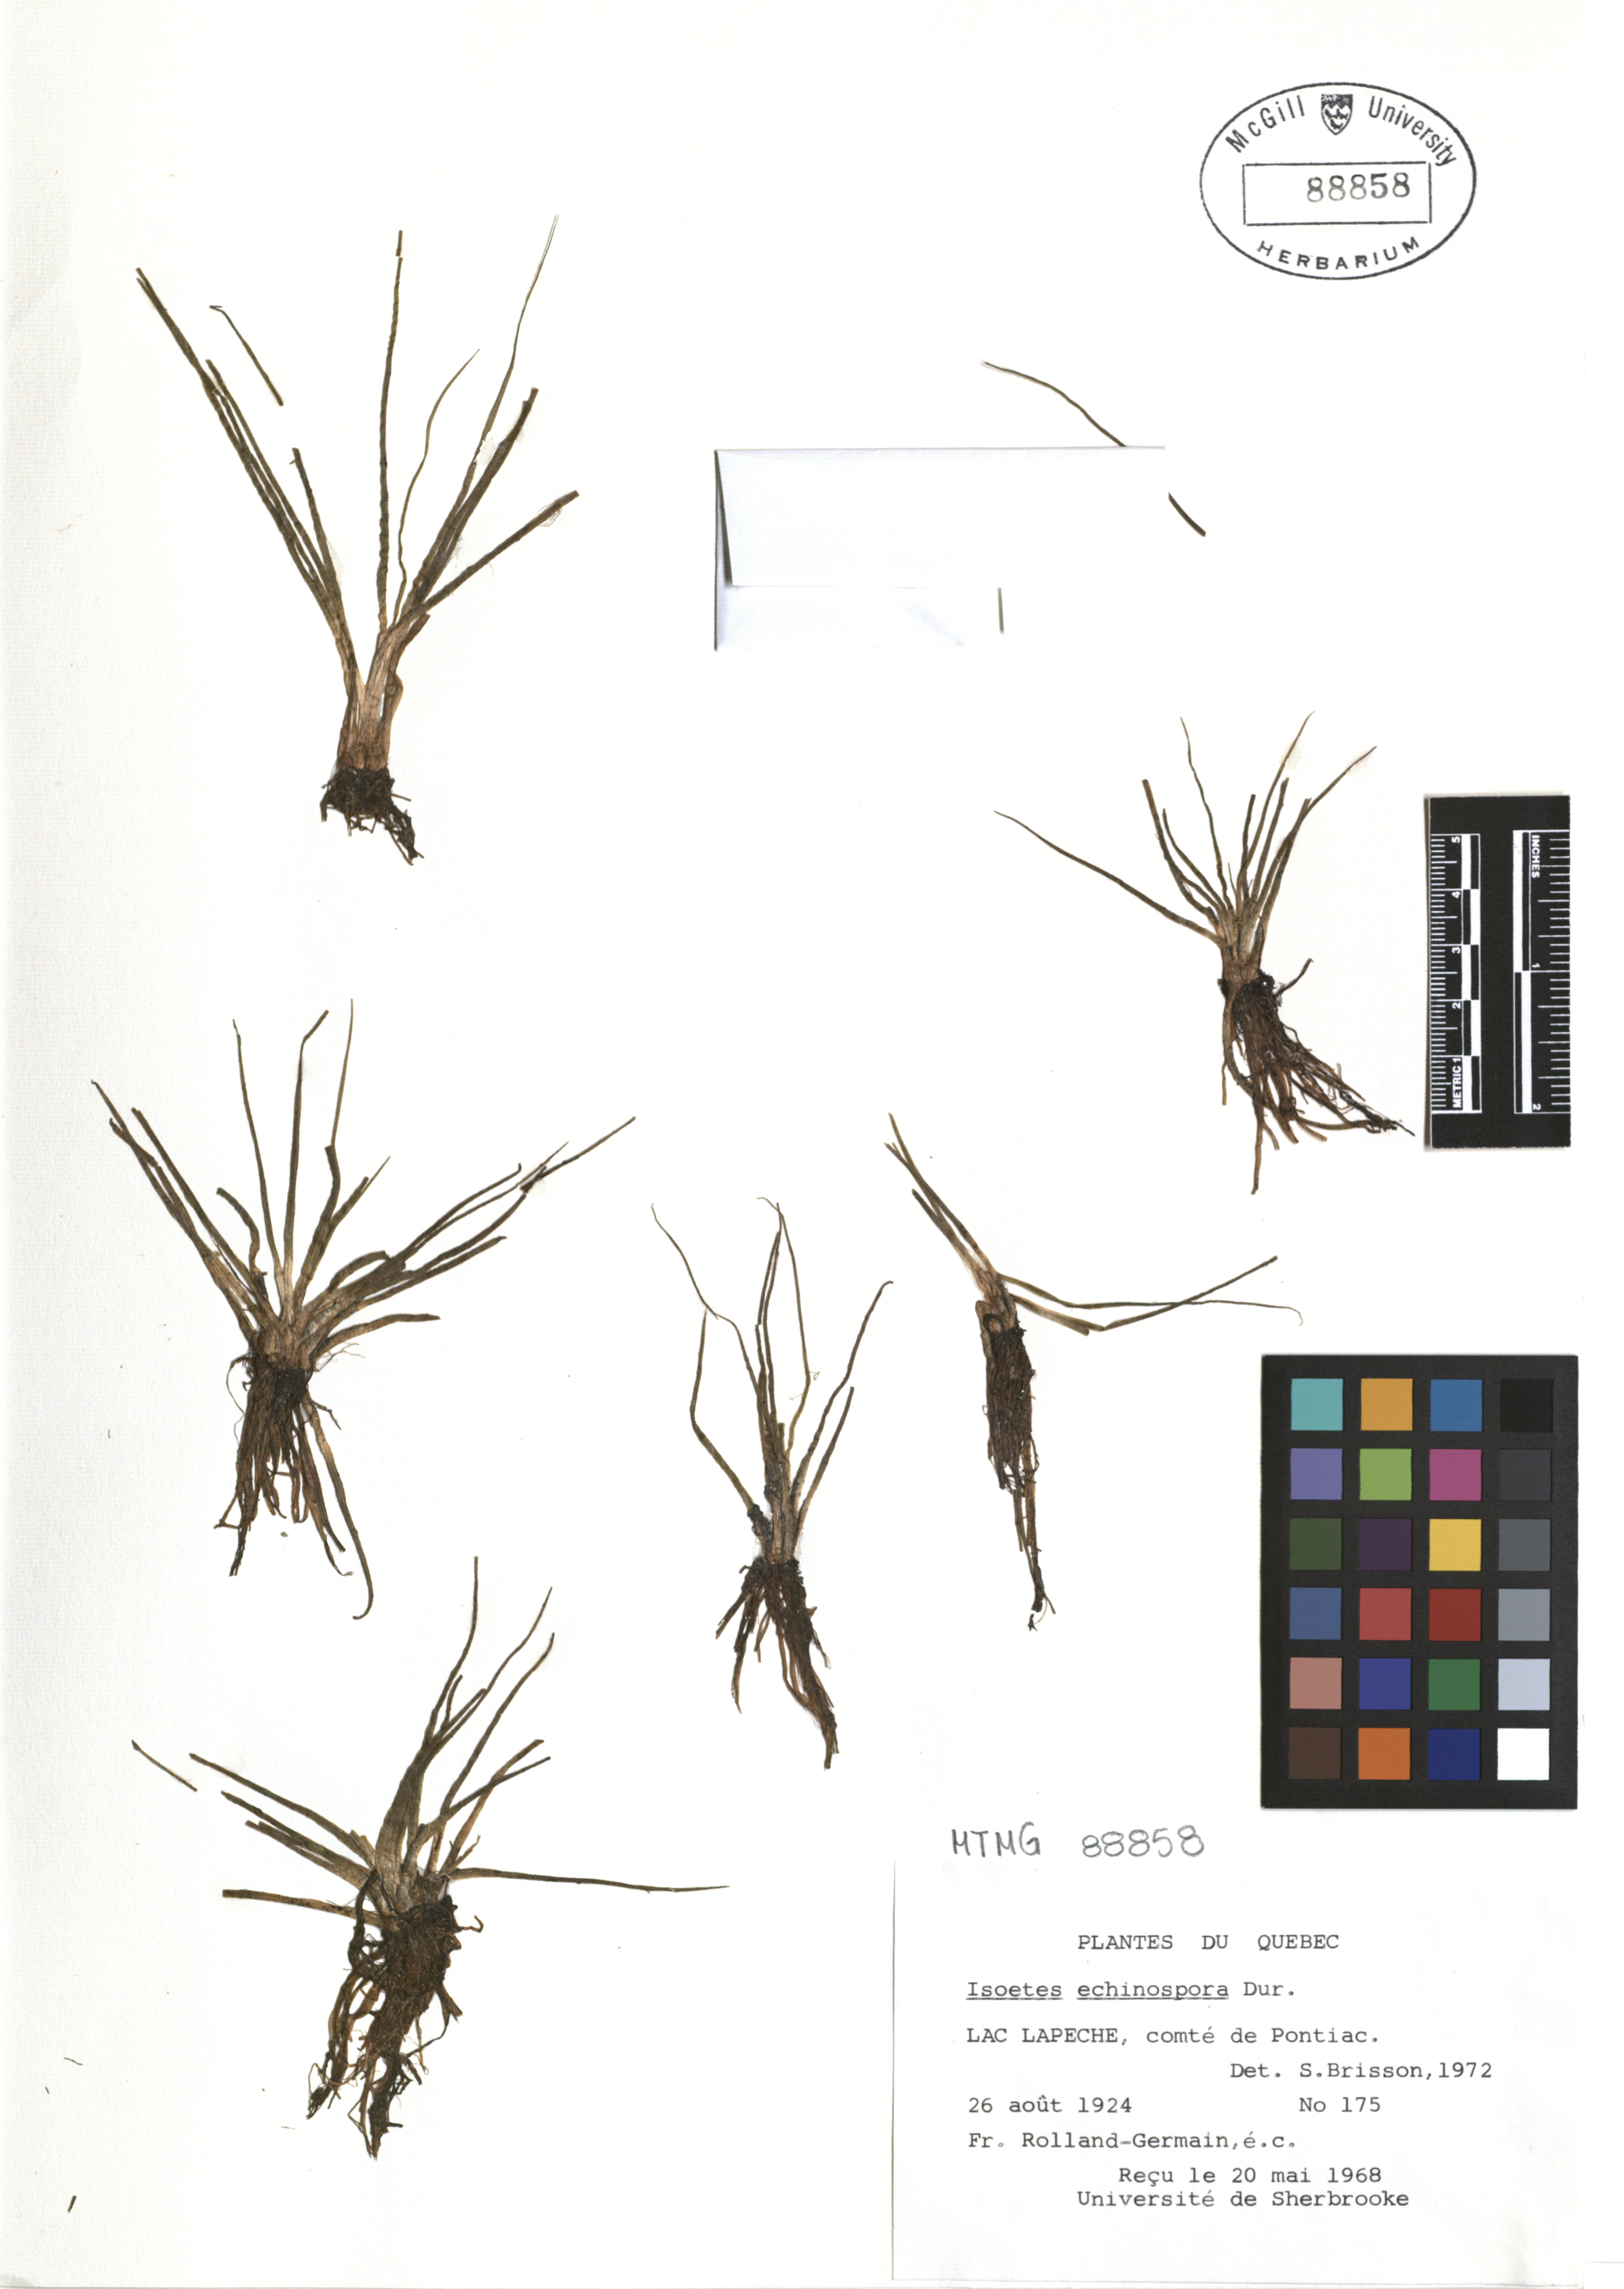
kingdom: Plantae
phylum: Tracheophyta
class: Lycopodiopsida
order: Isoetales
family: Isoetaceae
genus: Isoetes
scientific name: Isoetes echinospora
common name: Spring quillwort
